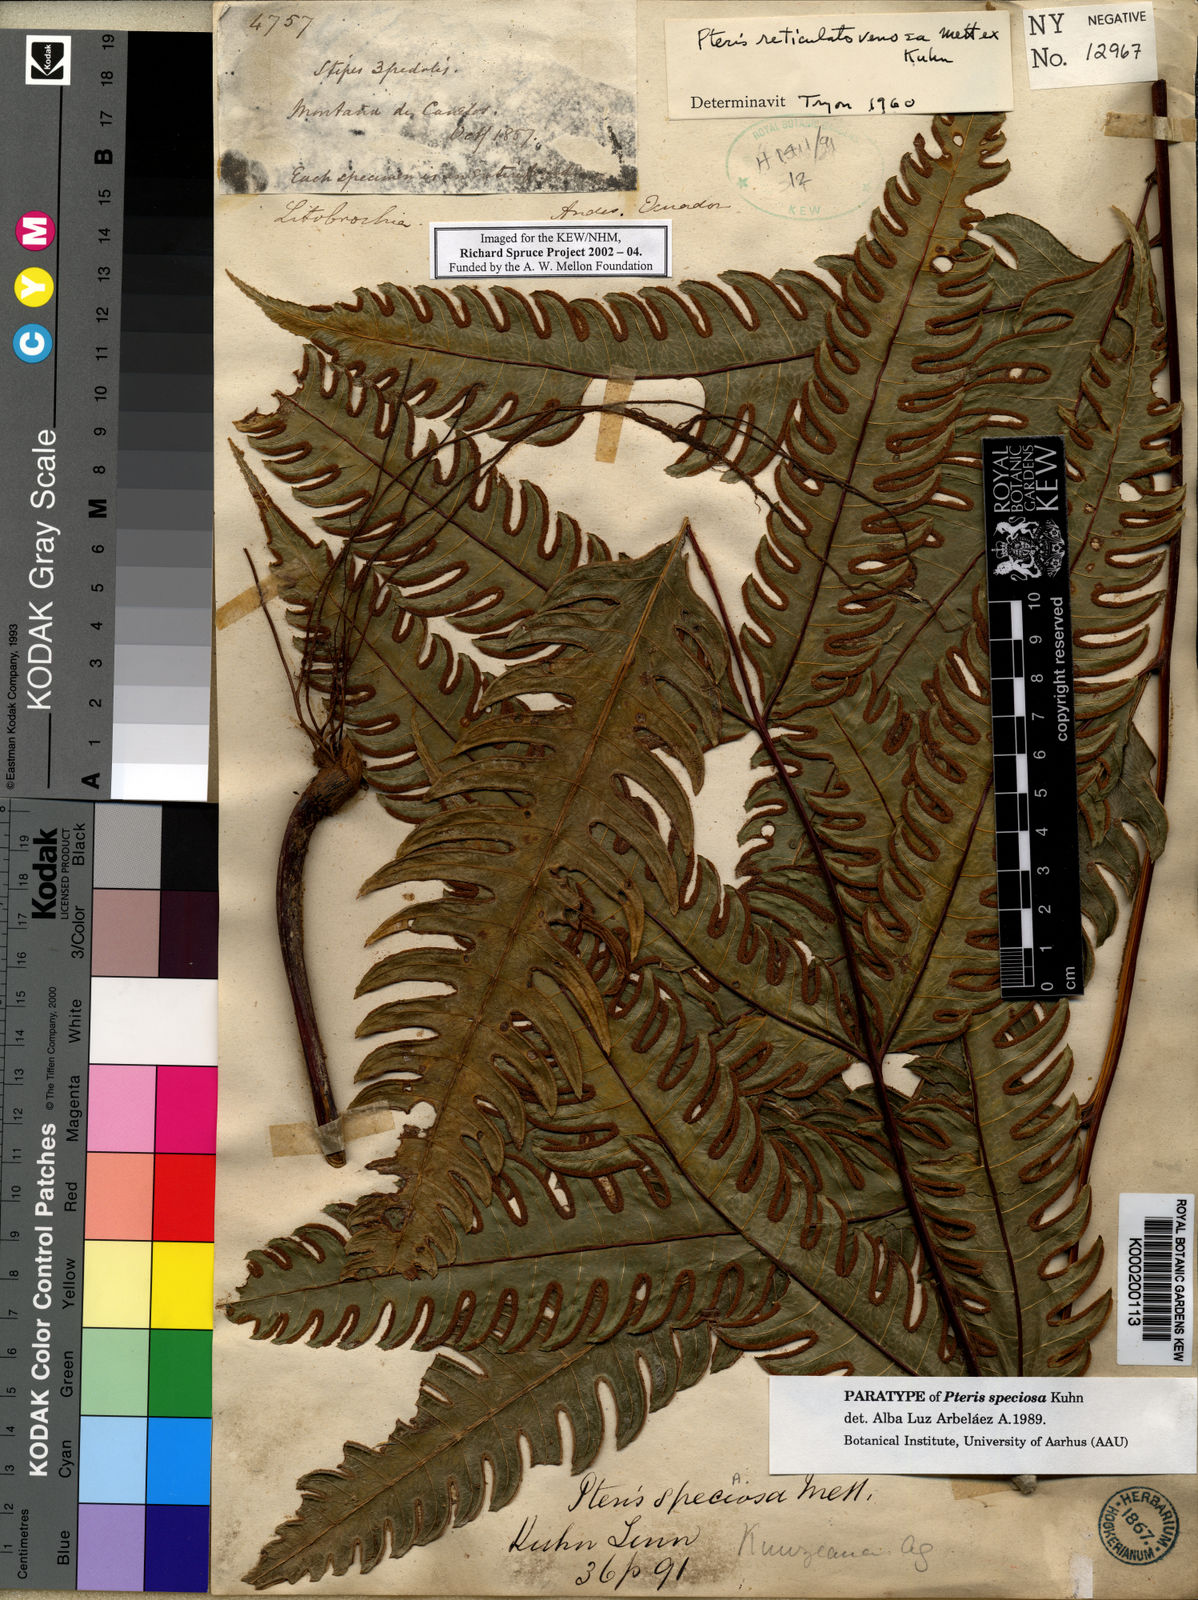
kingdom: Plantae
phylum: Tracheophyta
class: Polypodiopsida
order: Polypodiales
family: Pteridaceae
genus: Pteris
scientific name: Pteris speciosa
